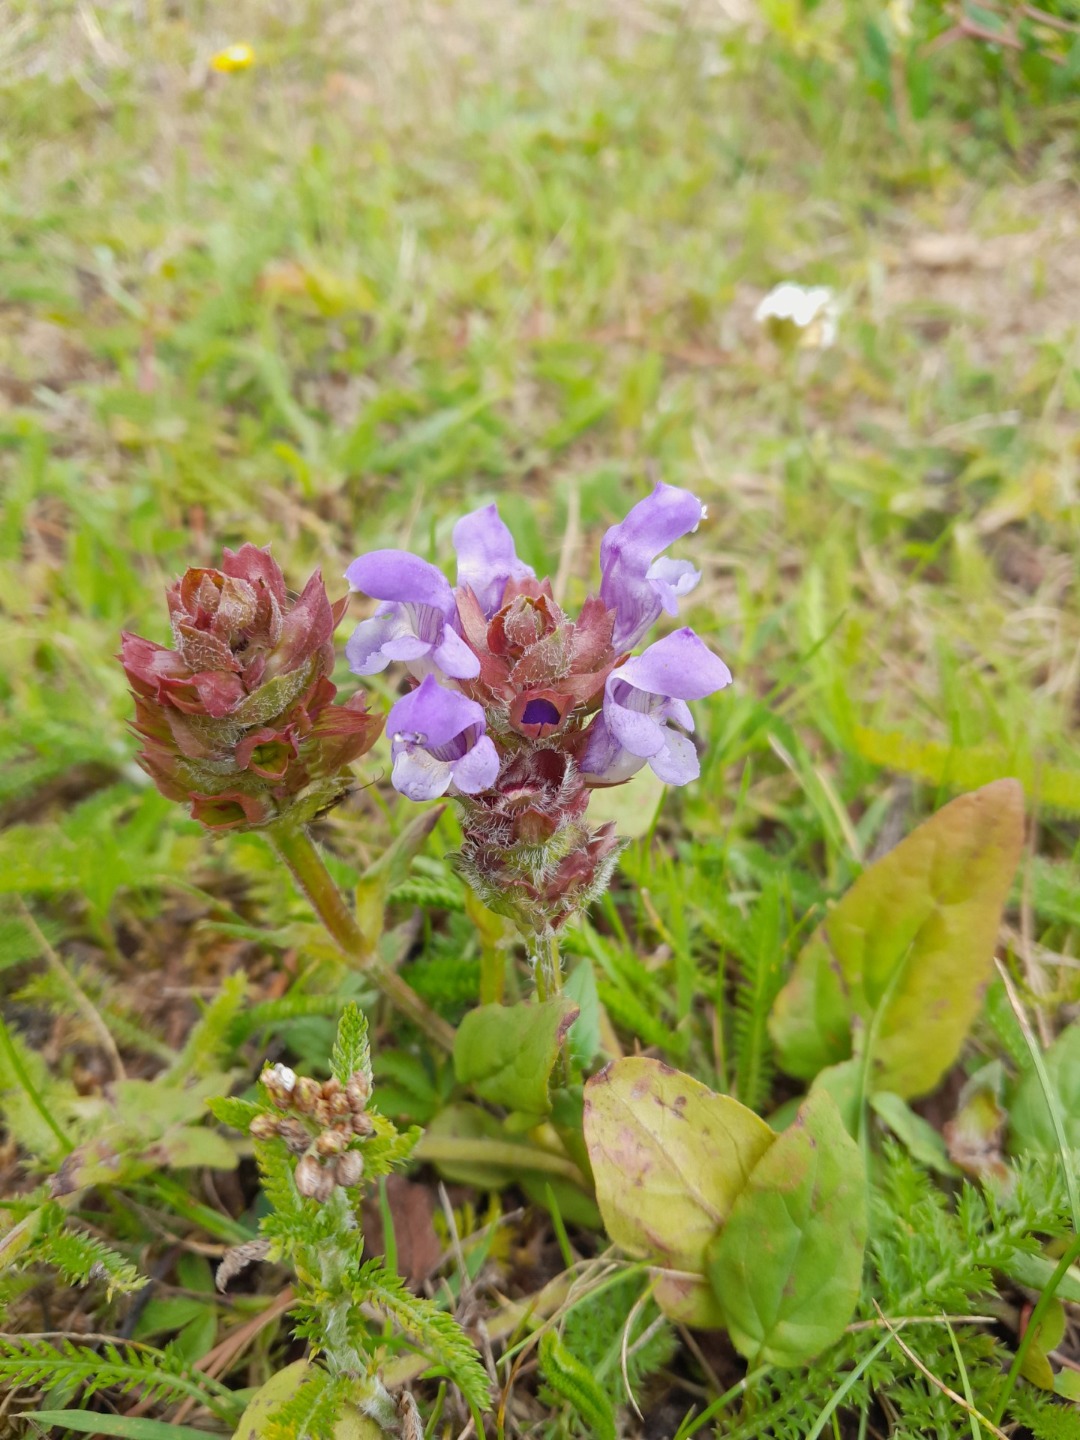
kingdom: Plantae
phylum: Tracheophyta
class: Magnoliopsida
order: Lamiales
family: Lamiaceae
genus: Prunella
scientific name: Prunella grandiflora
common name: Storblomstret brunelle
